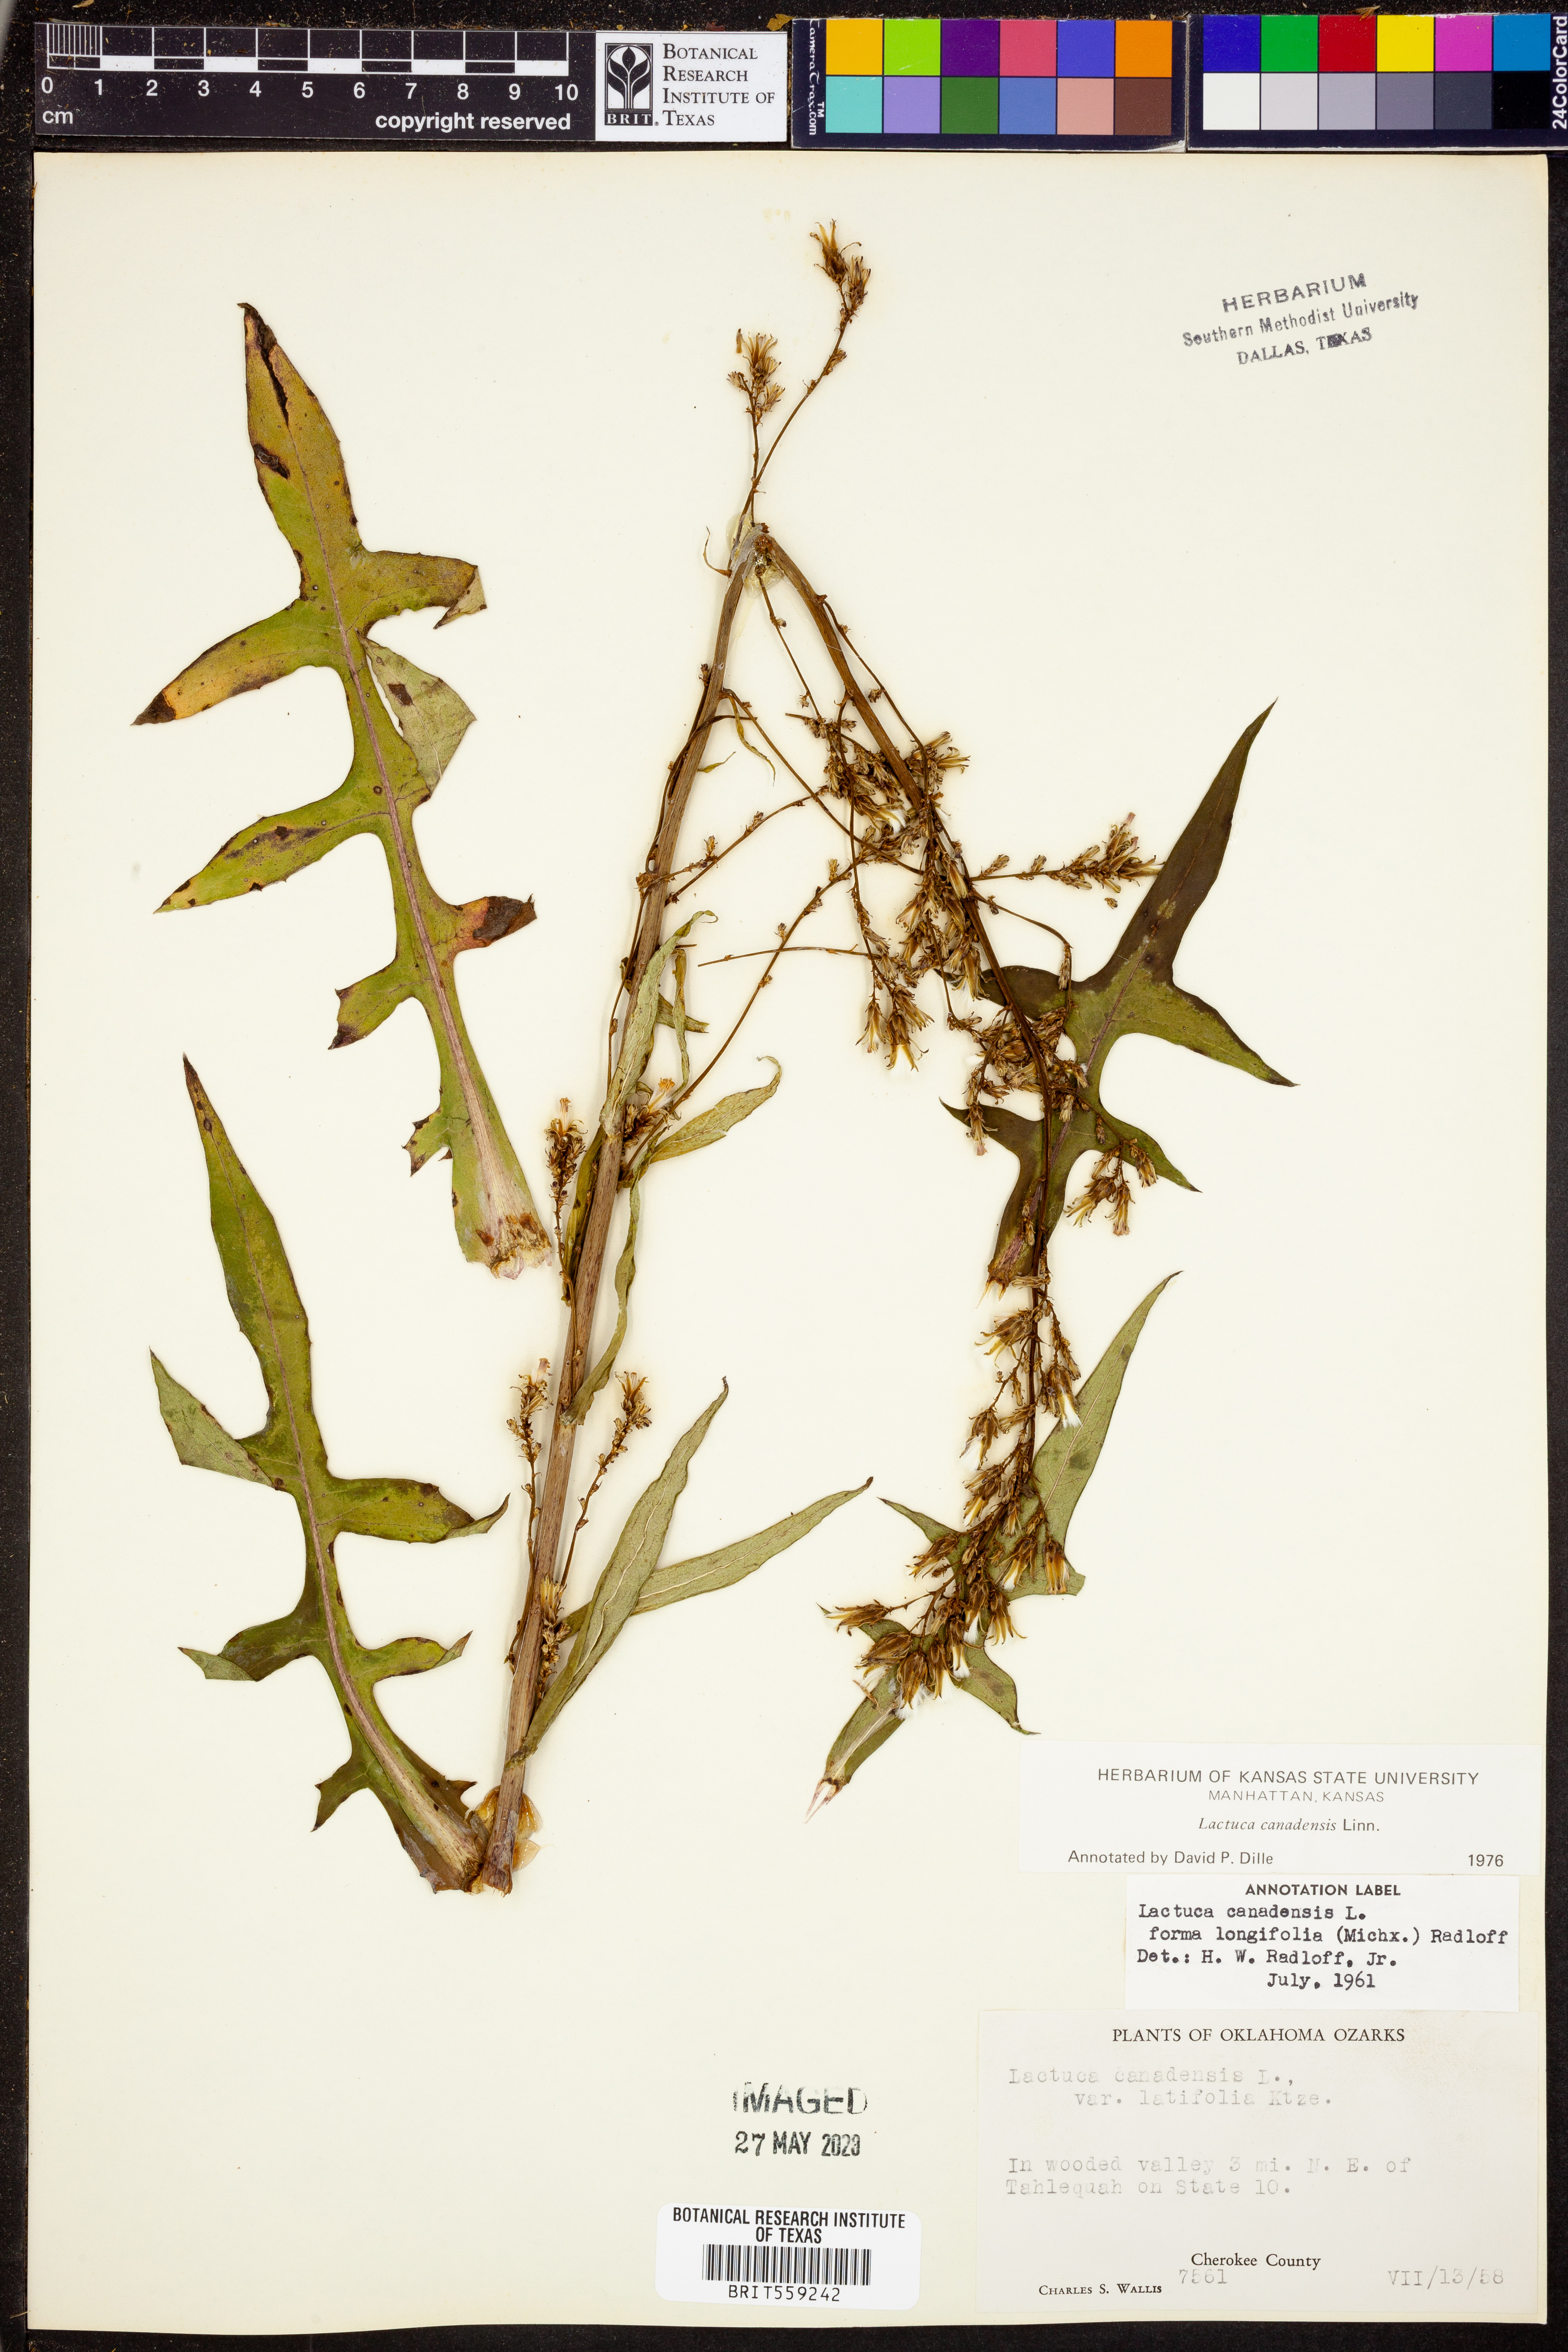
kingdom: Plantae
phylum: Tracheophyta
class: Magnoliopsida
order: Asterales
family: Asteraceae
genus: Lactuca
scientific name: Lactuca canadensis
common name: Canada lettuce
